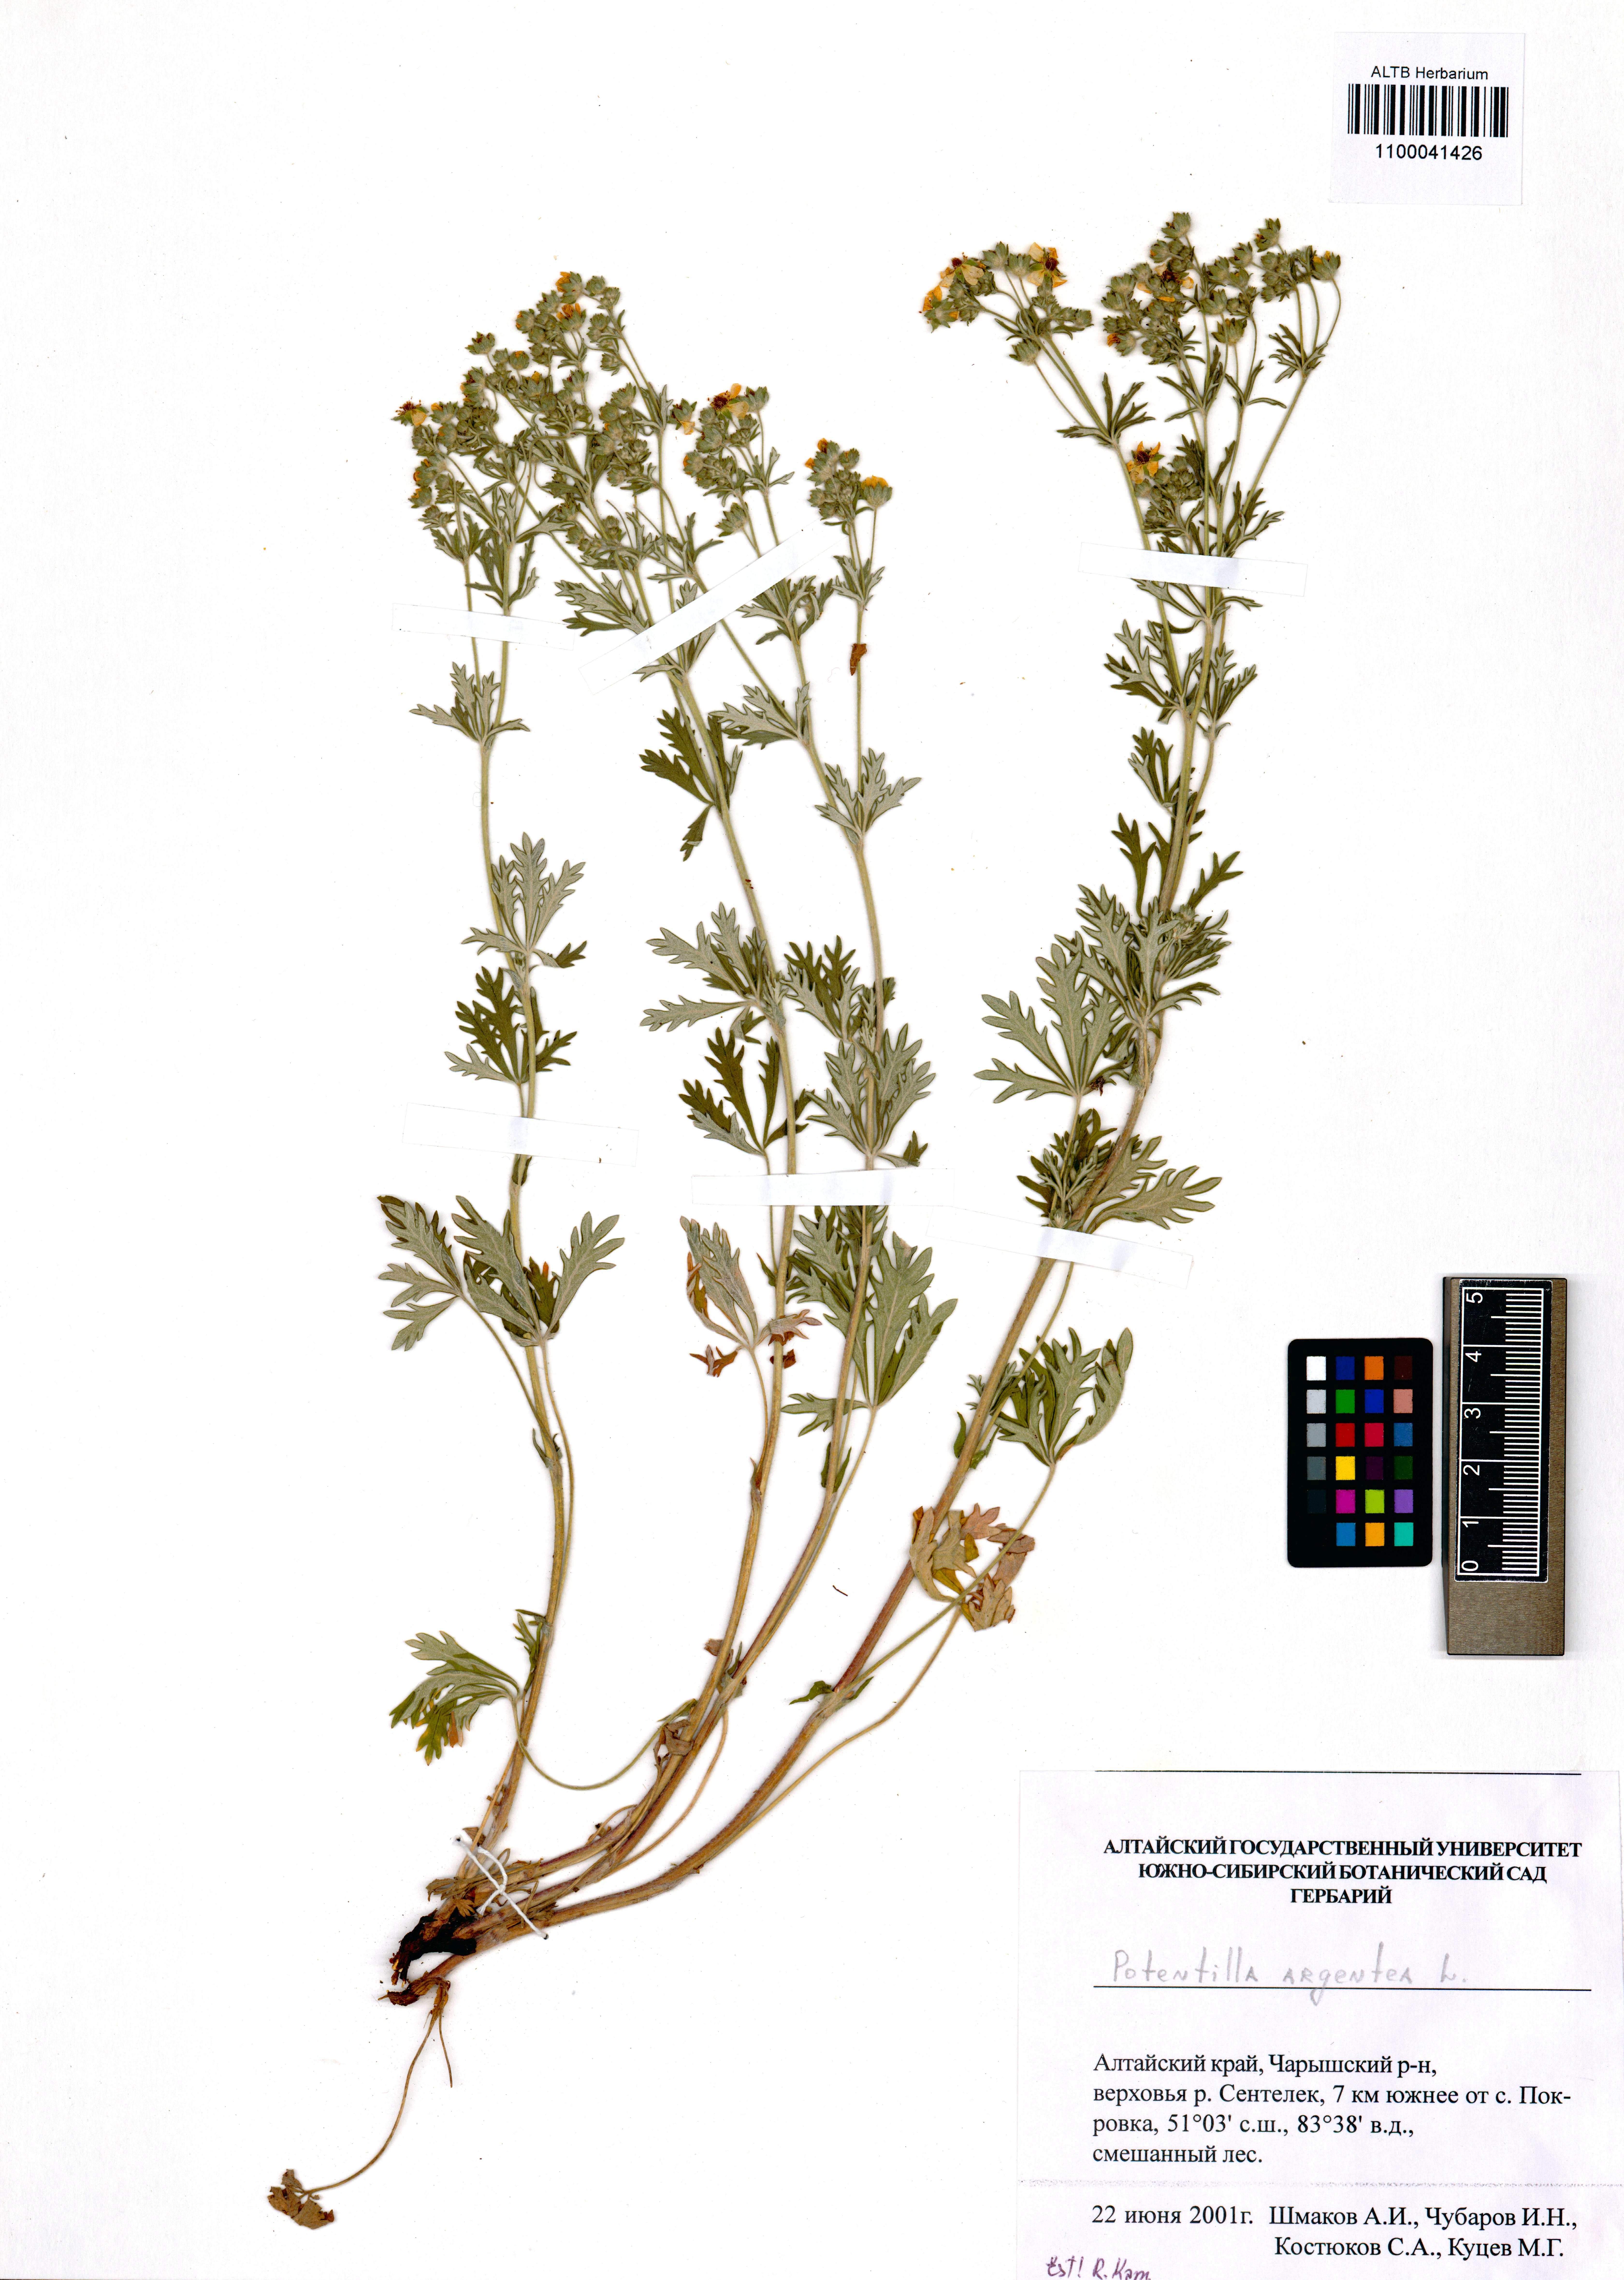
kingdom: Plantae
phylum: Tracheophyta
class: Magnoliopsida
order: Rosales
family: Rosaceae
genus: Potentilla
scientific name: Potentilla argentea
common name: Hoary cinquefoil
